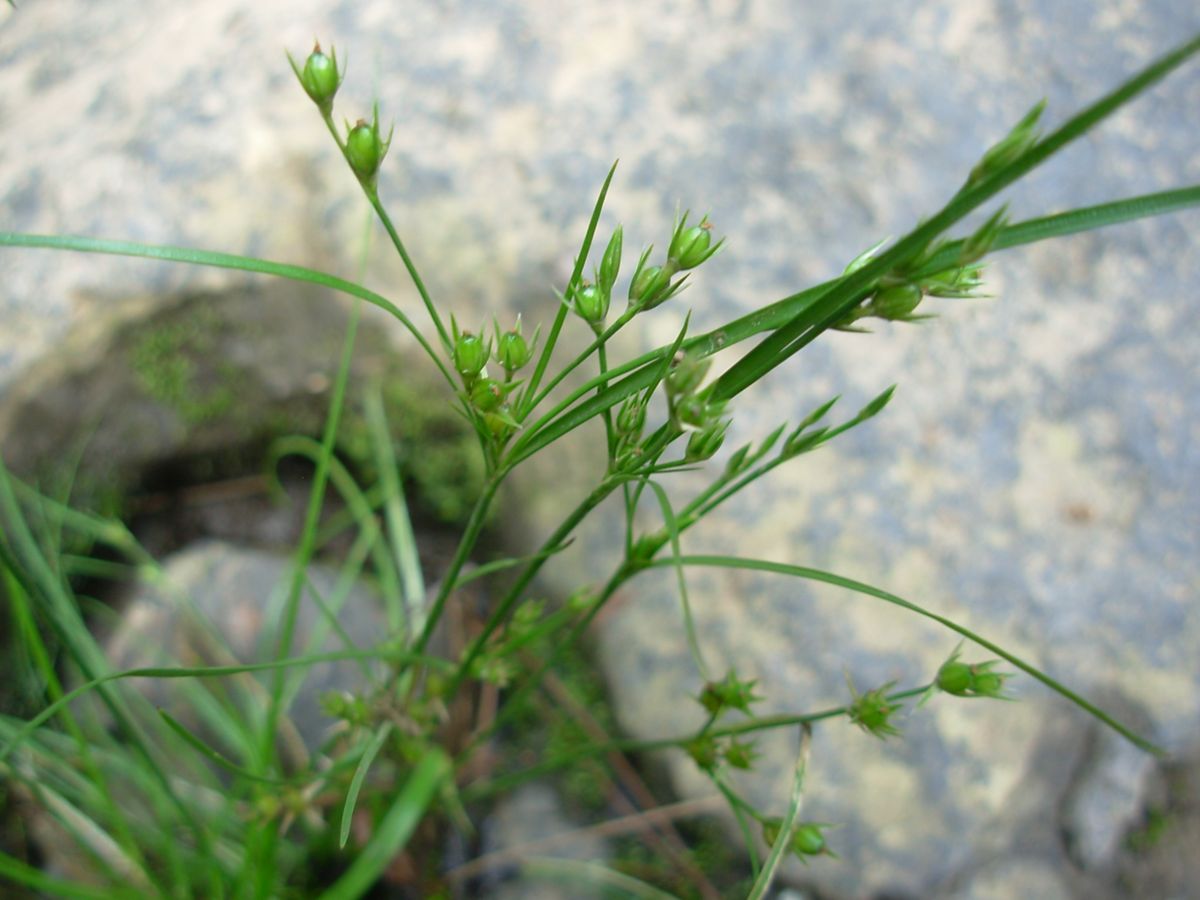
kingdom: Plantae
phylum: Tracheophyta
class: Liliopsida
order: Poales
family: Cyperaceae
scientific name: Cyperaceae
